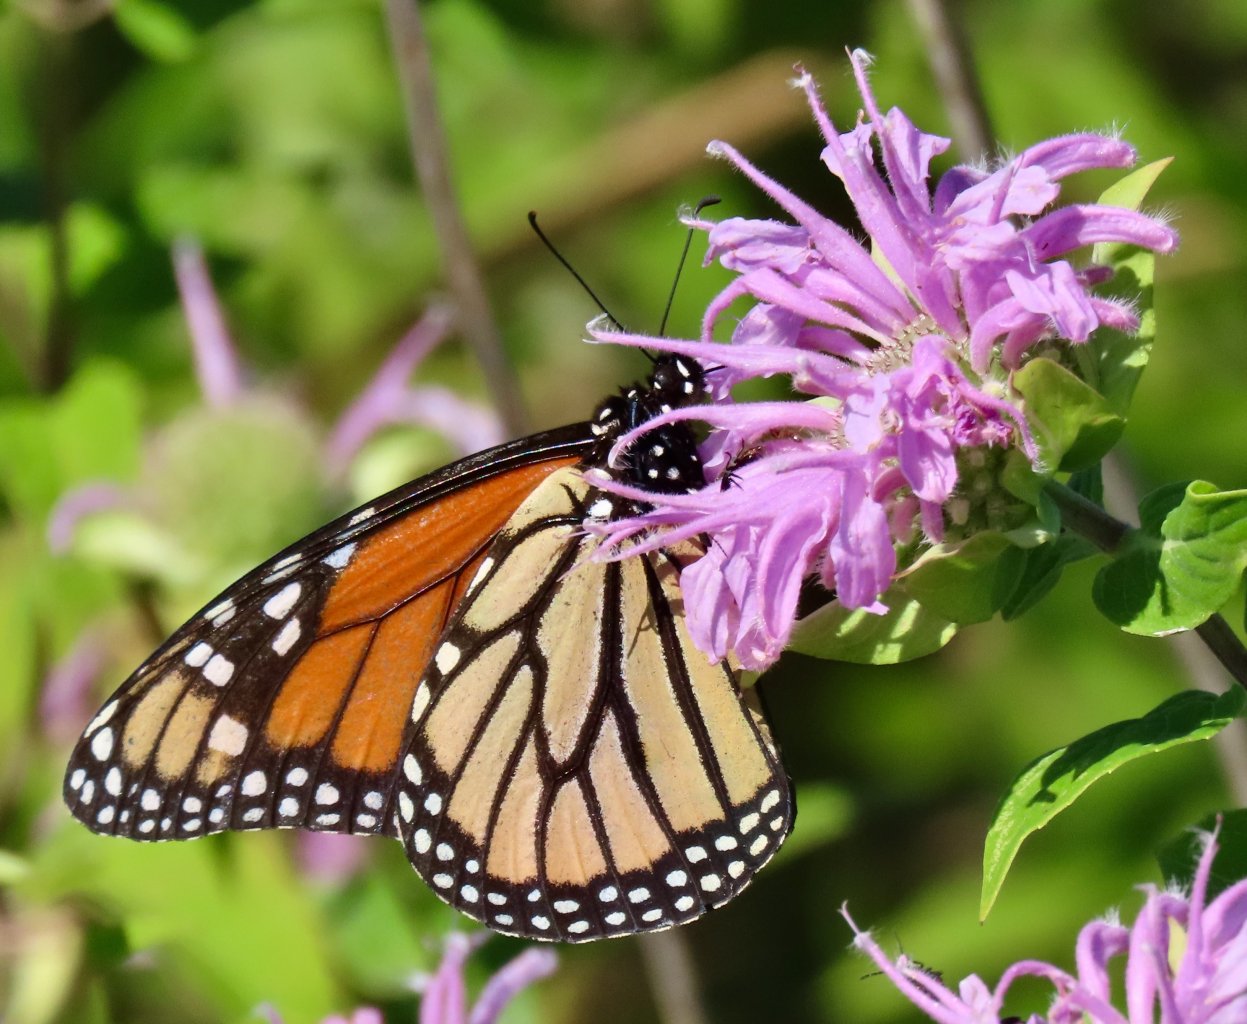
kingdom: Animalia
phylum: Arthropoda
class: Insecta
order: Lepidoptera
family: Nymphalidae
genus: Danaus
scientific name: Danaus plexippus
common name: Monarch
